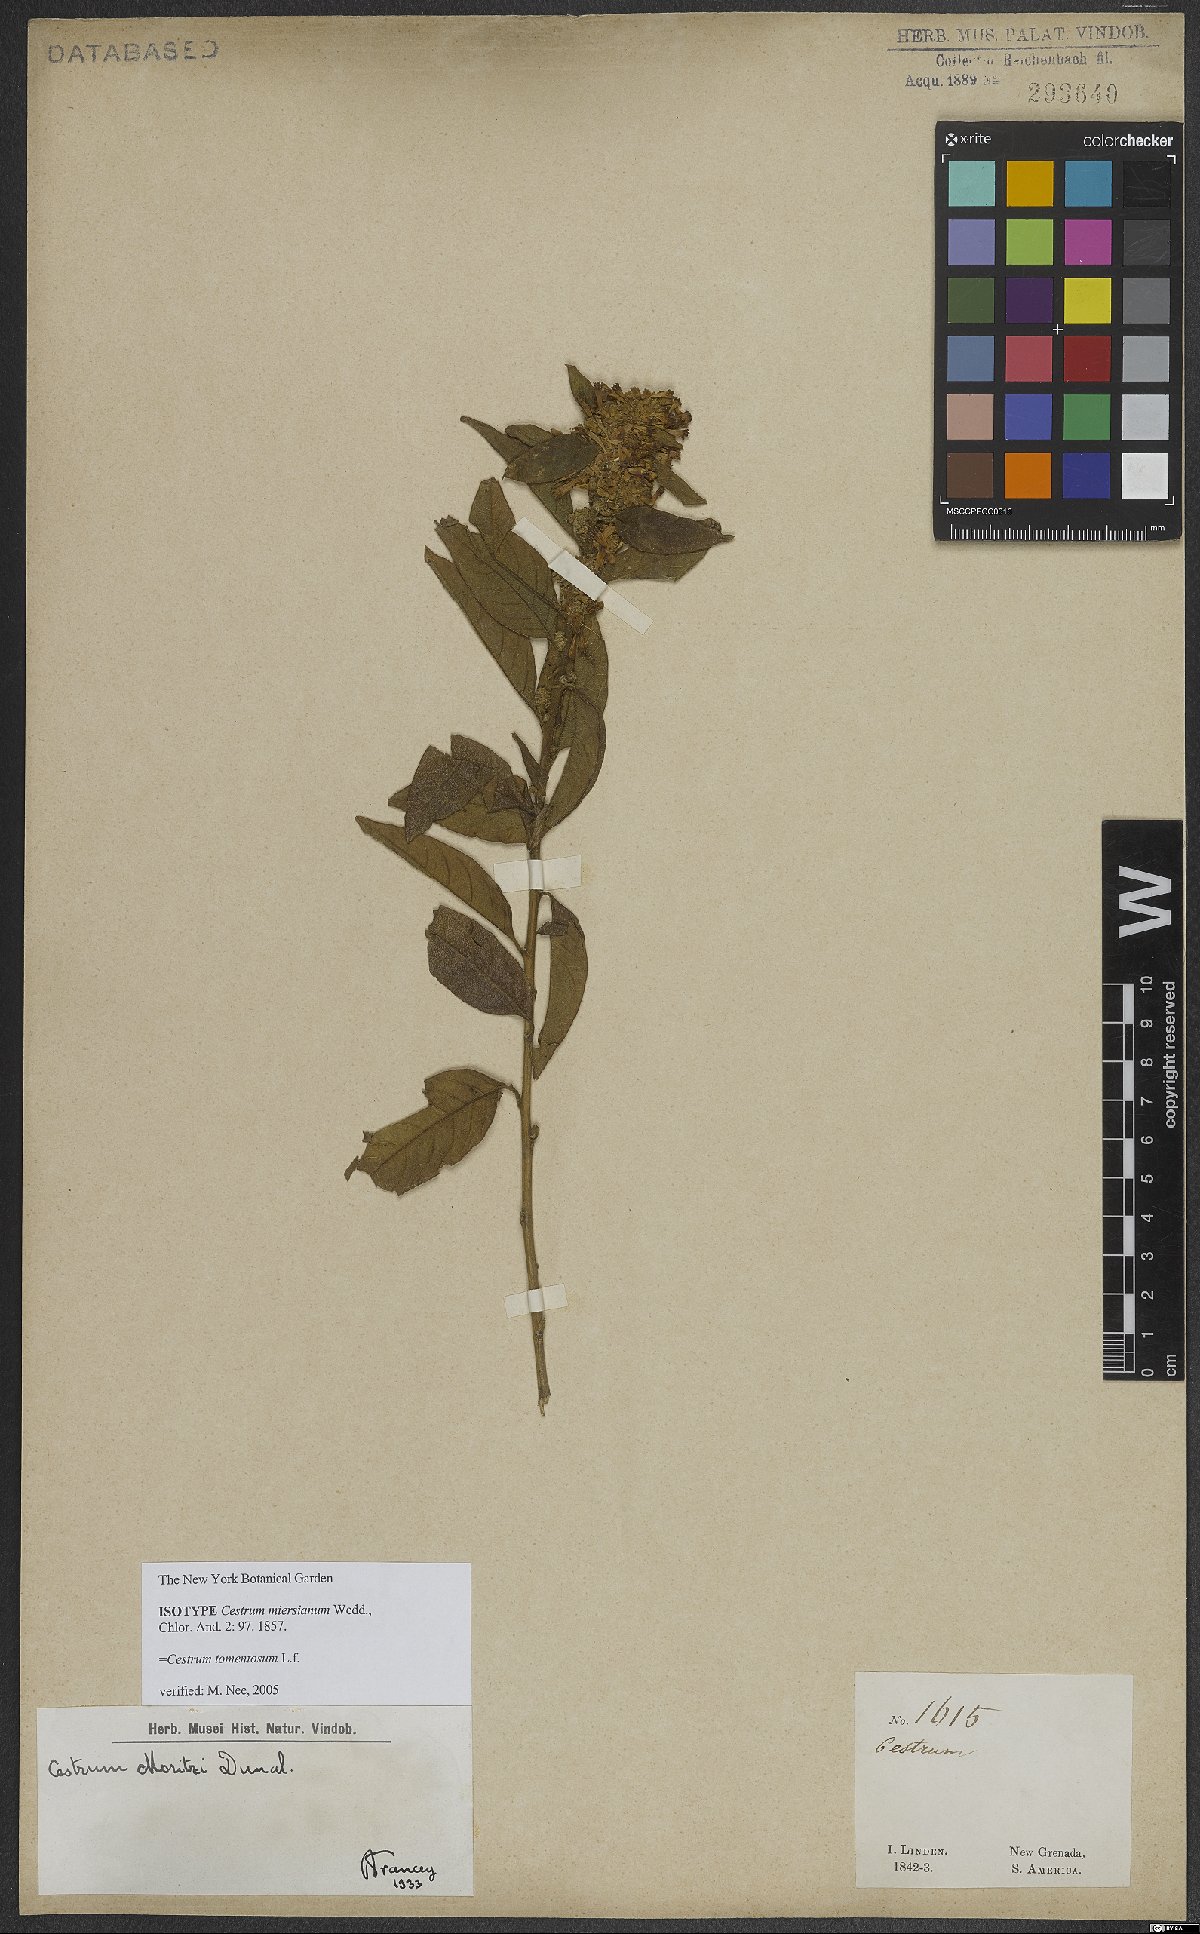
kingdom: Plantae
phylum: Tracheophyta
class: Magnoliopsida
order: Solanales
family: Solanaceae
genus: Cestrum
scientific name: Cestrum tomentosum
